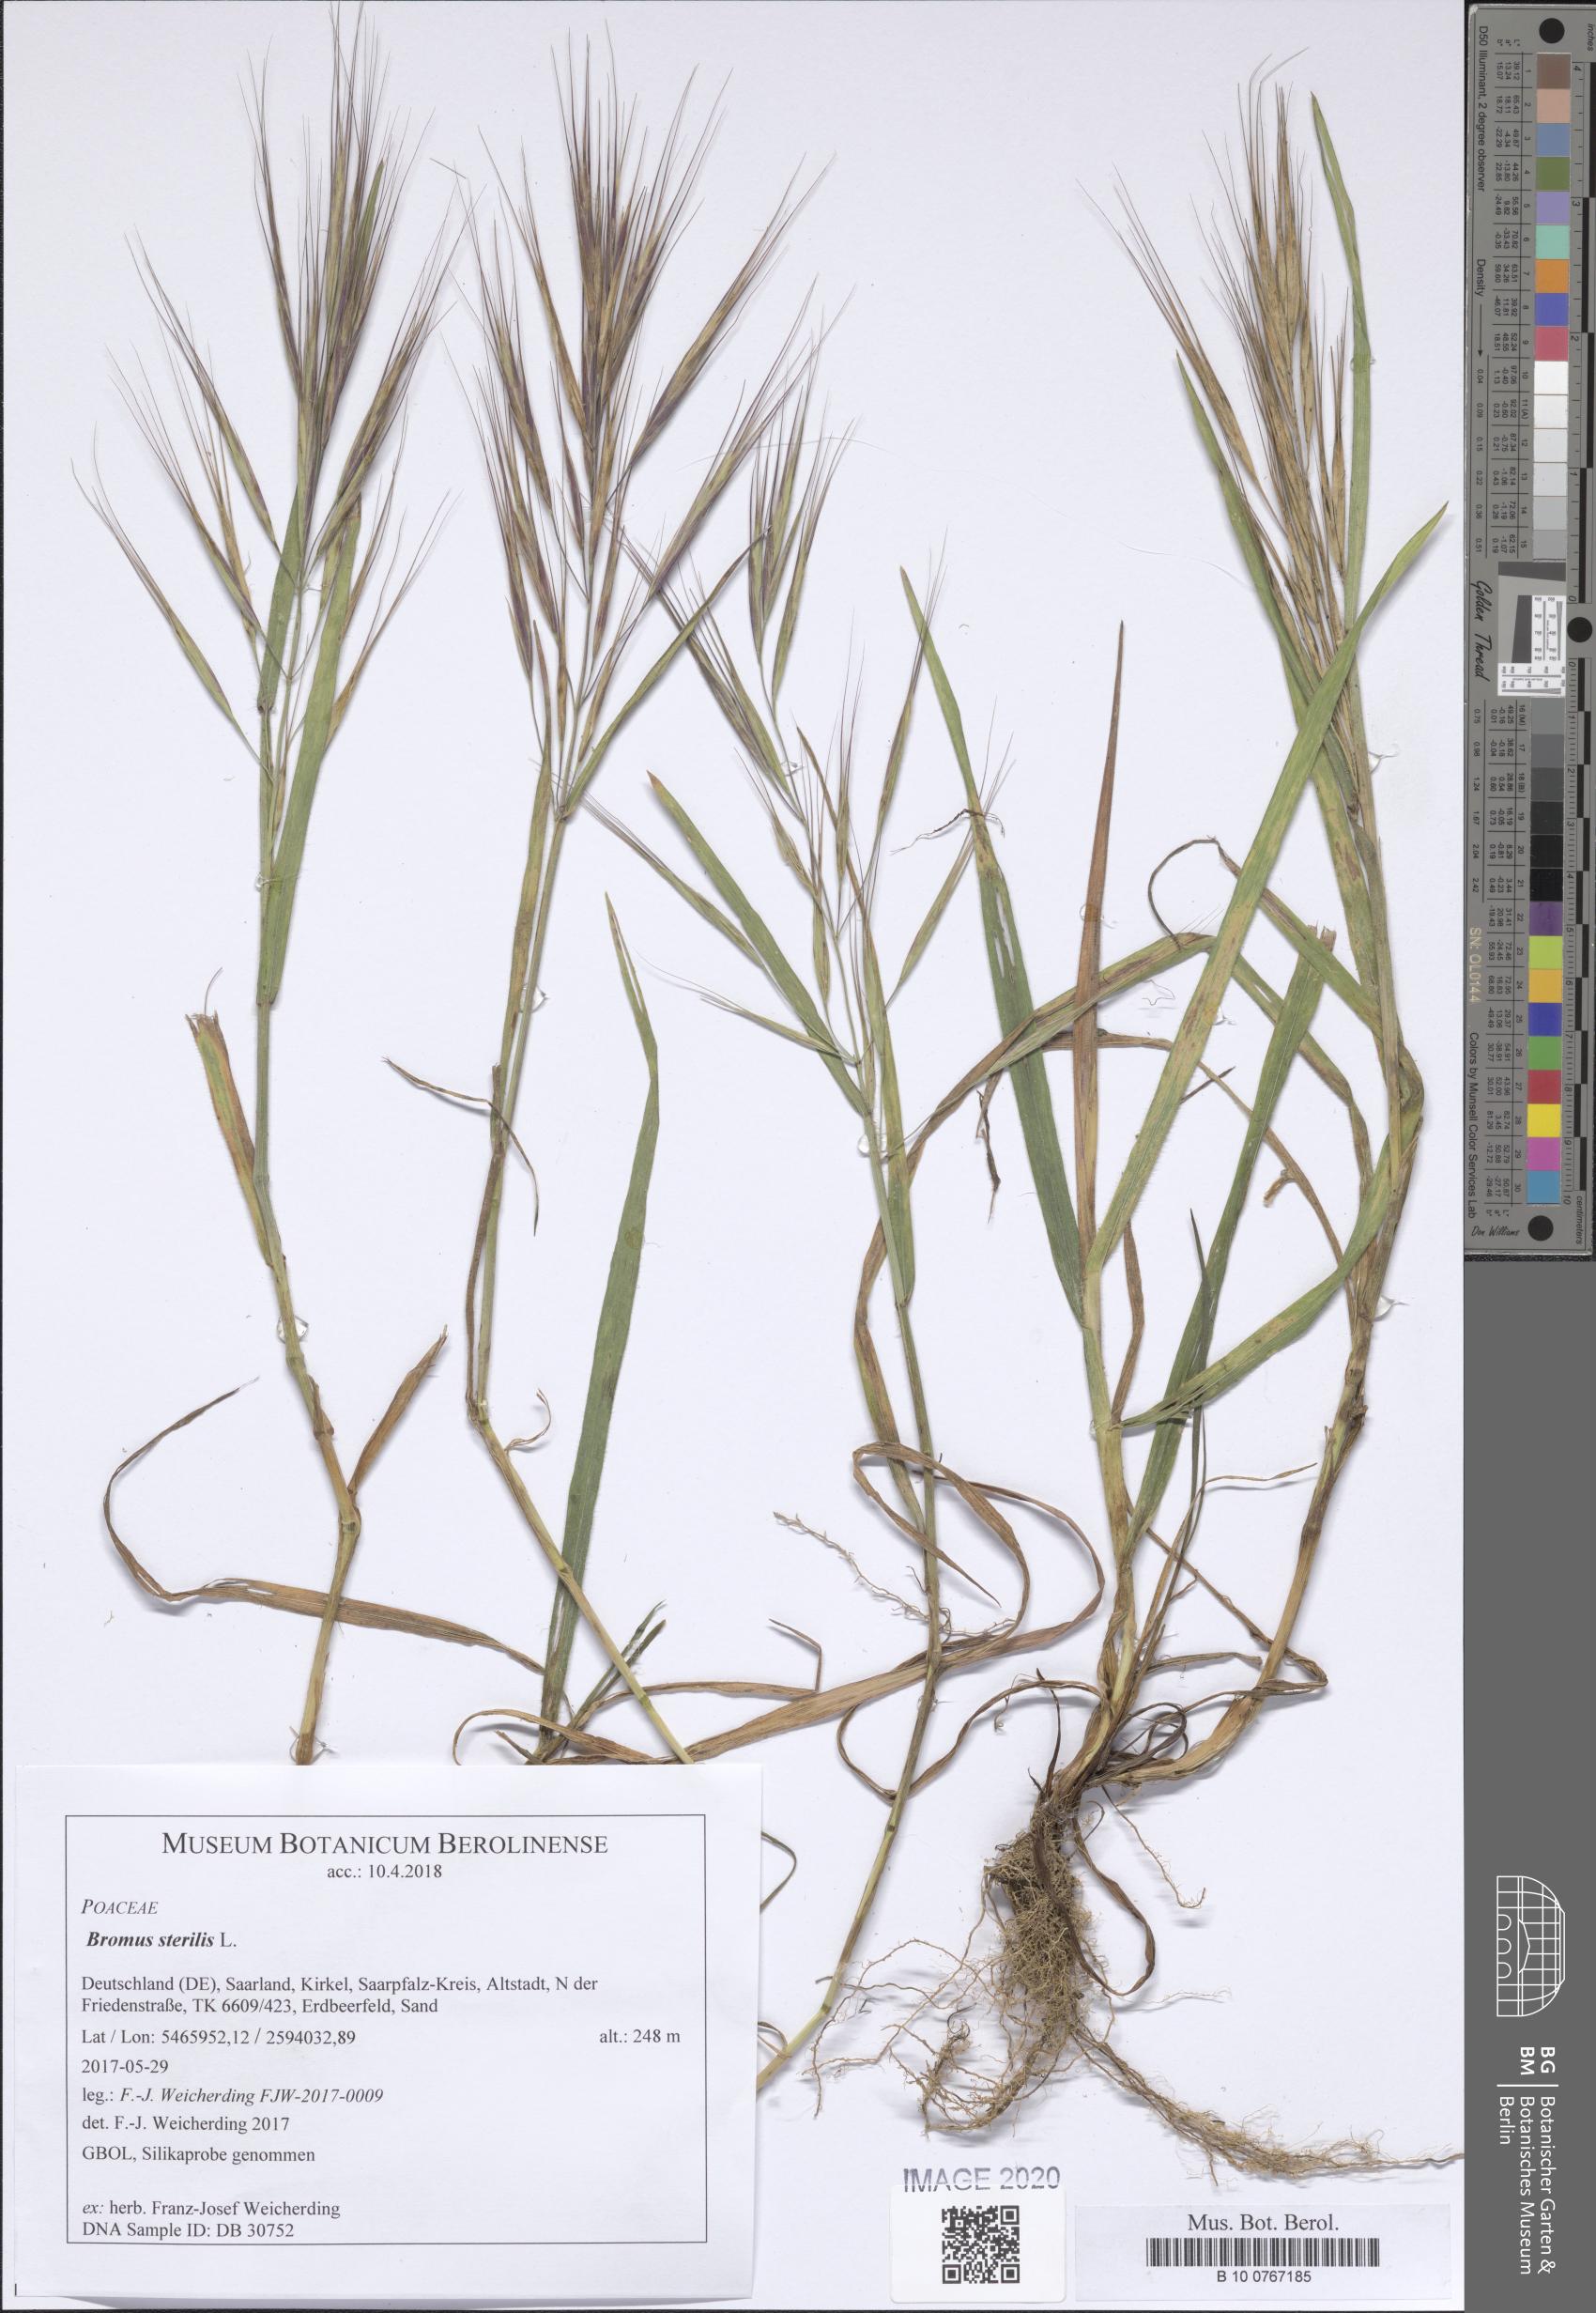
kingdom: Plantae
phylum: Tracheophyta
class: Liliopsida
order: Poales
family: Poaceae
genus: Bromus
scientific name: Bromus sterilis
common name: Poverty brome
